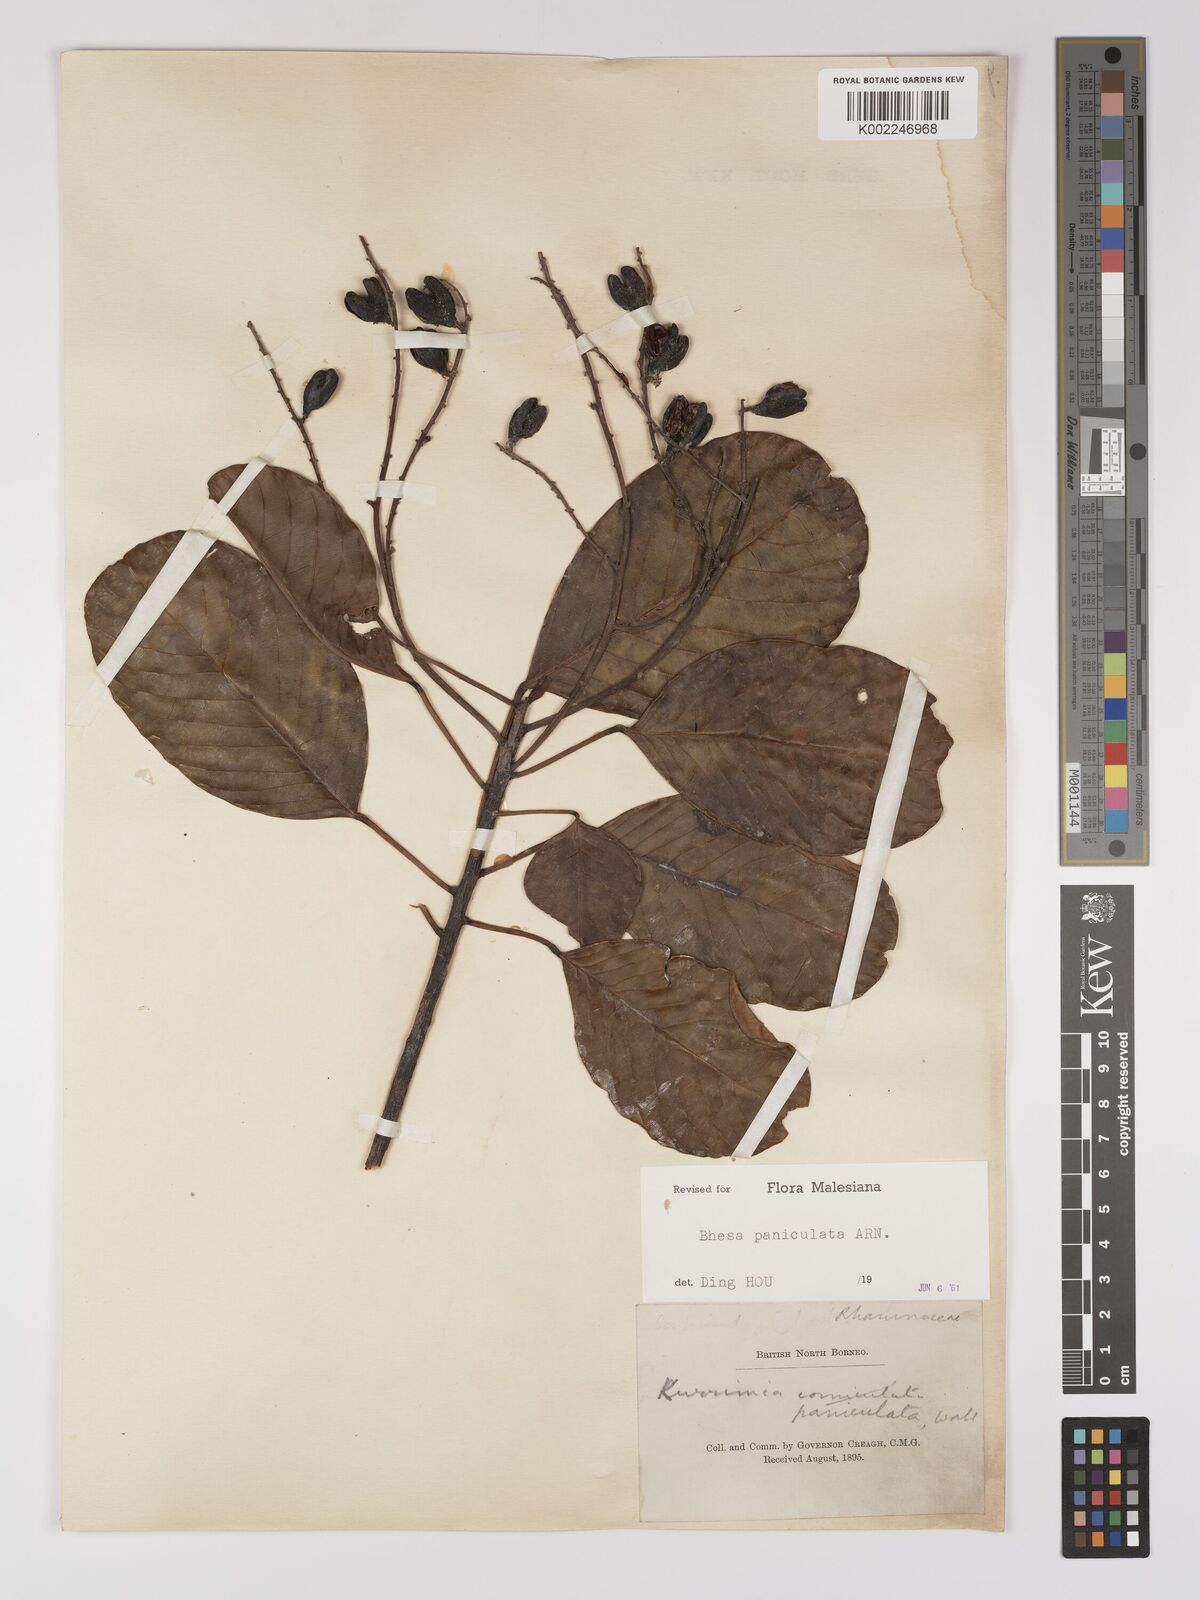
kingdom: Plantae
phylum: Tracheophyta
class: Magnoliopsida
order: Malpighiales
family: Centroplacaceae
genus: Bhesa
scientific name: Bhesa paniculata
